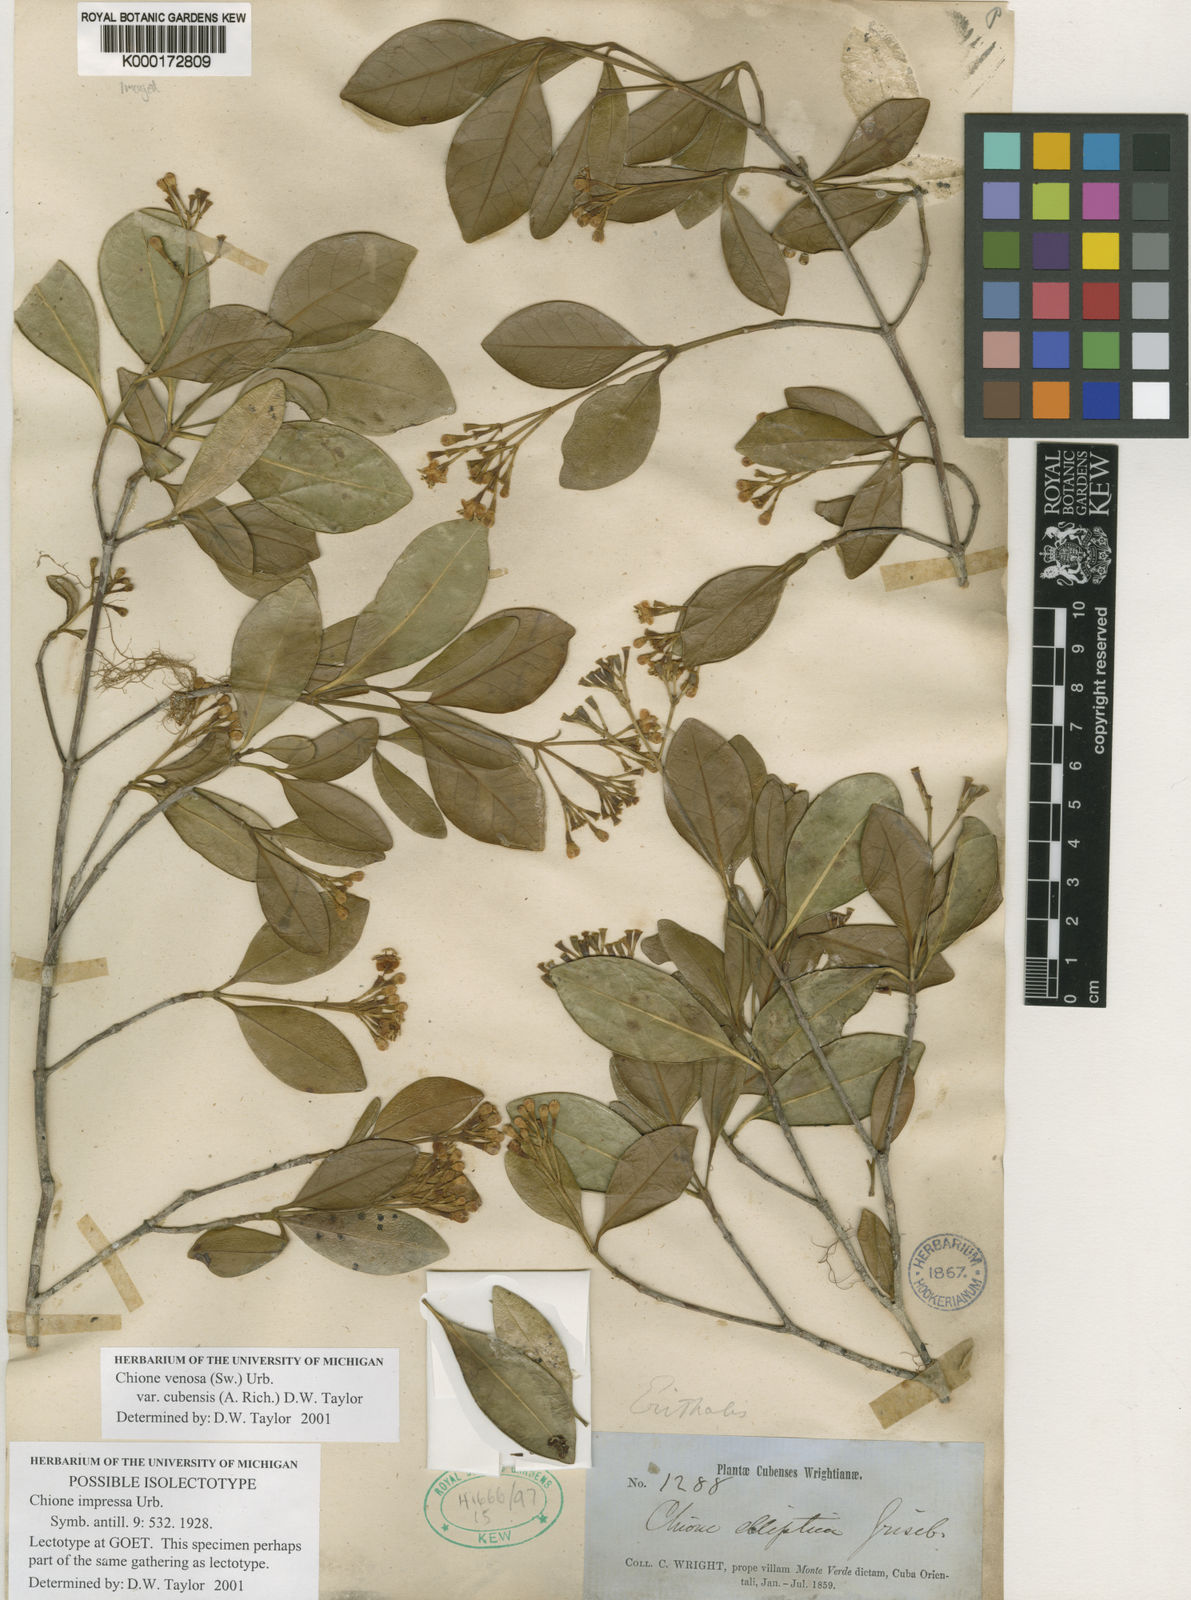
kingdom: Plantae
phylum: Tracheophyta
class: Magnoliopsida
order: Gentianales
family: Rubiaceae
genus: Chione
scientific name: Chione venosa
